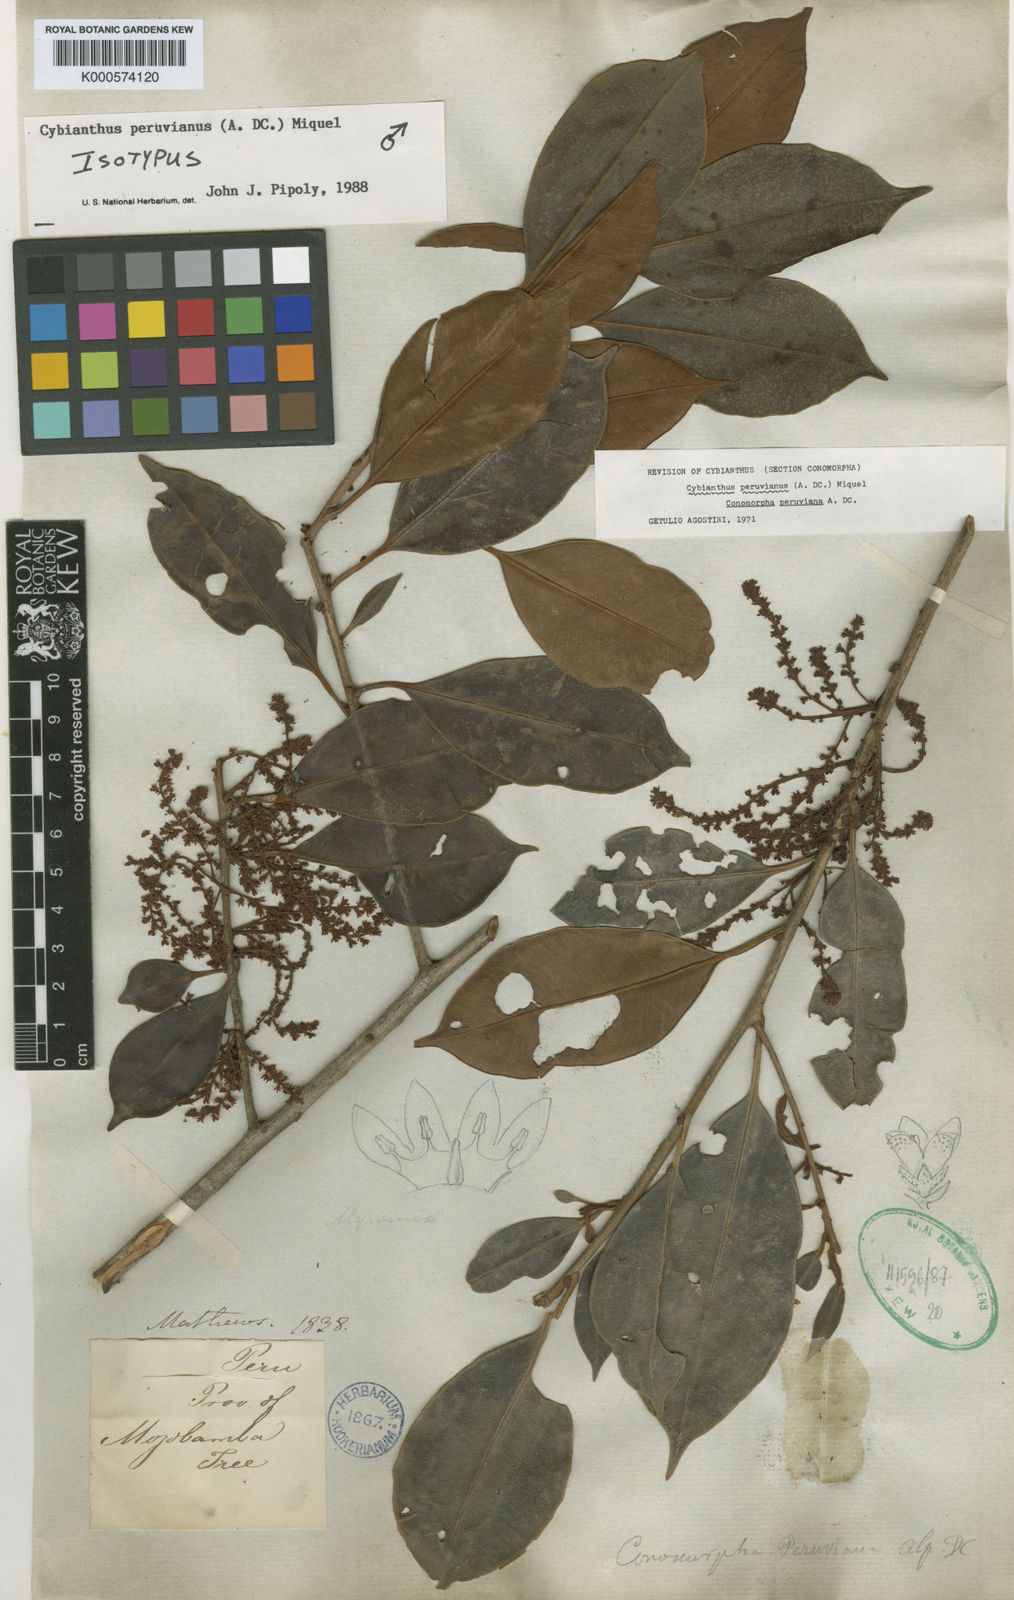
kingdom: Plantae
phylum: Tracheophyta
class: Magnoliopsida
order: Ericales
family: Primulaceae
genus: Cybianthus
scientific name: Cybianthus peruvianus
